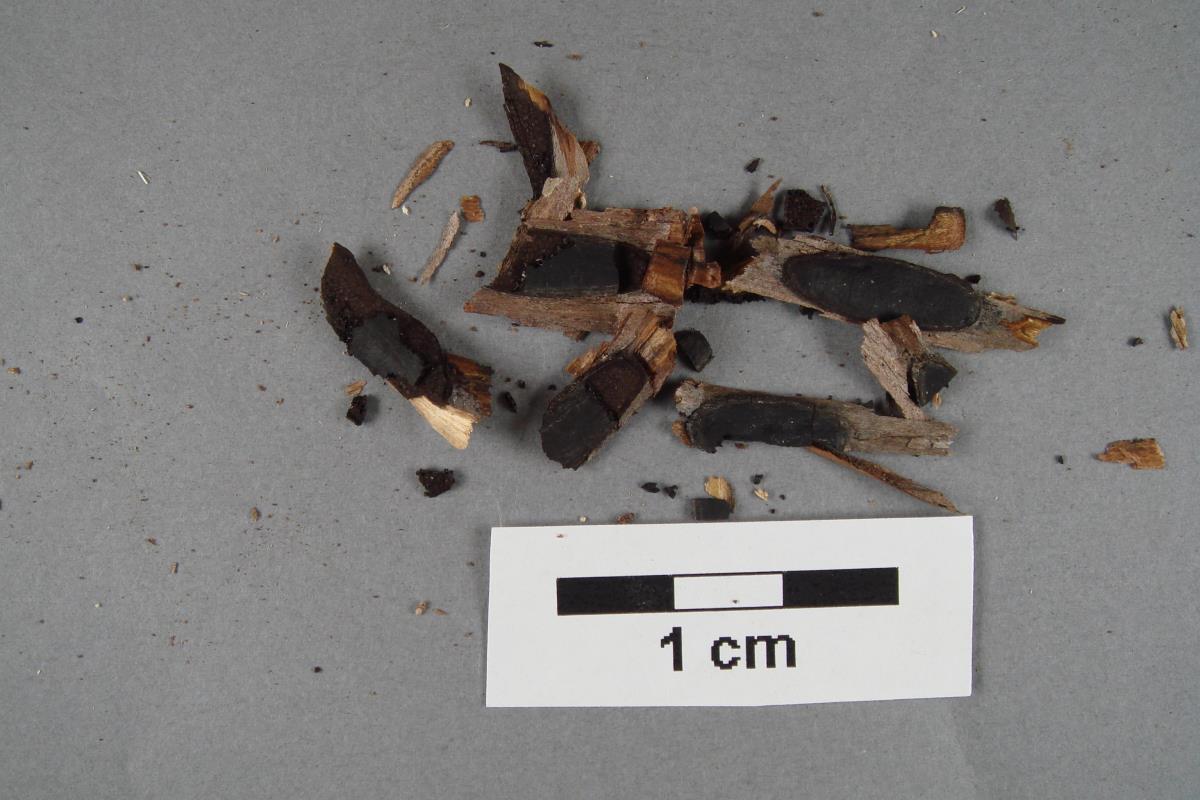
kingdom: Fungi
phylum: Ascomycota
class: Sordariomycetes
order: Xylariales
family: Graphostromataceae
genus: Biscogniauxia
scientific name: Biscogniauxia capnodes
